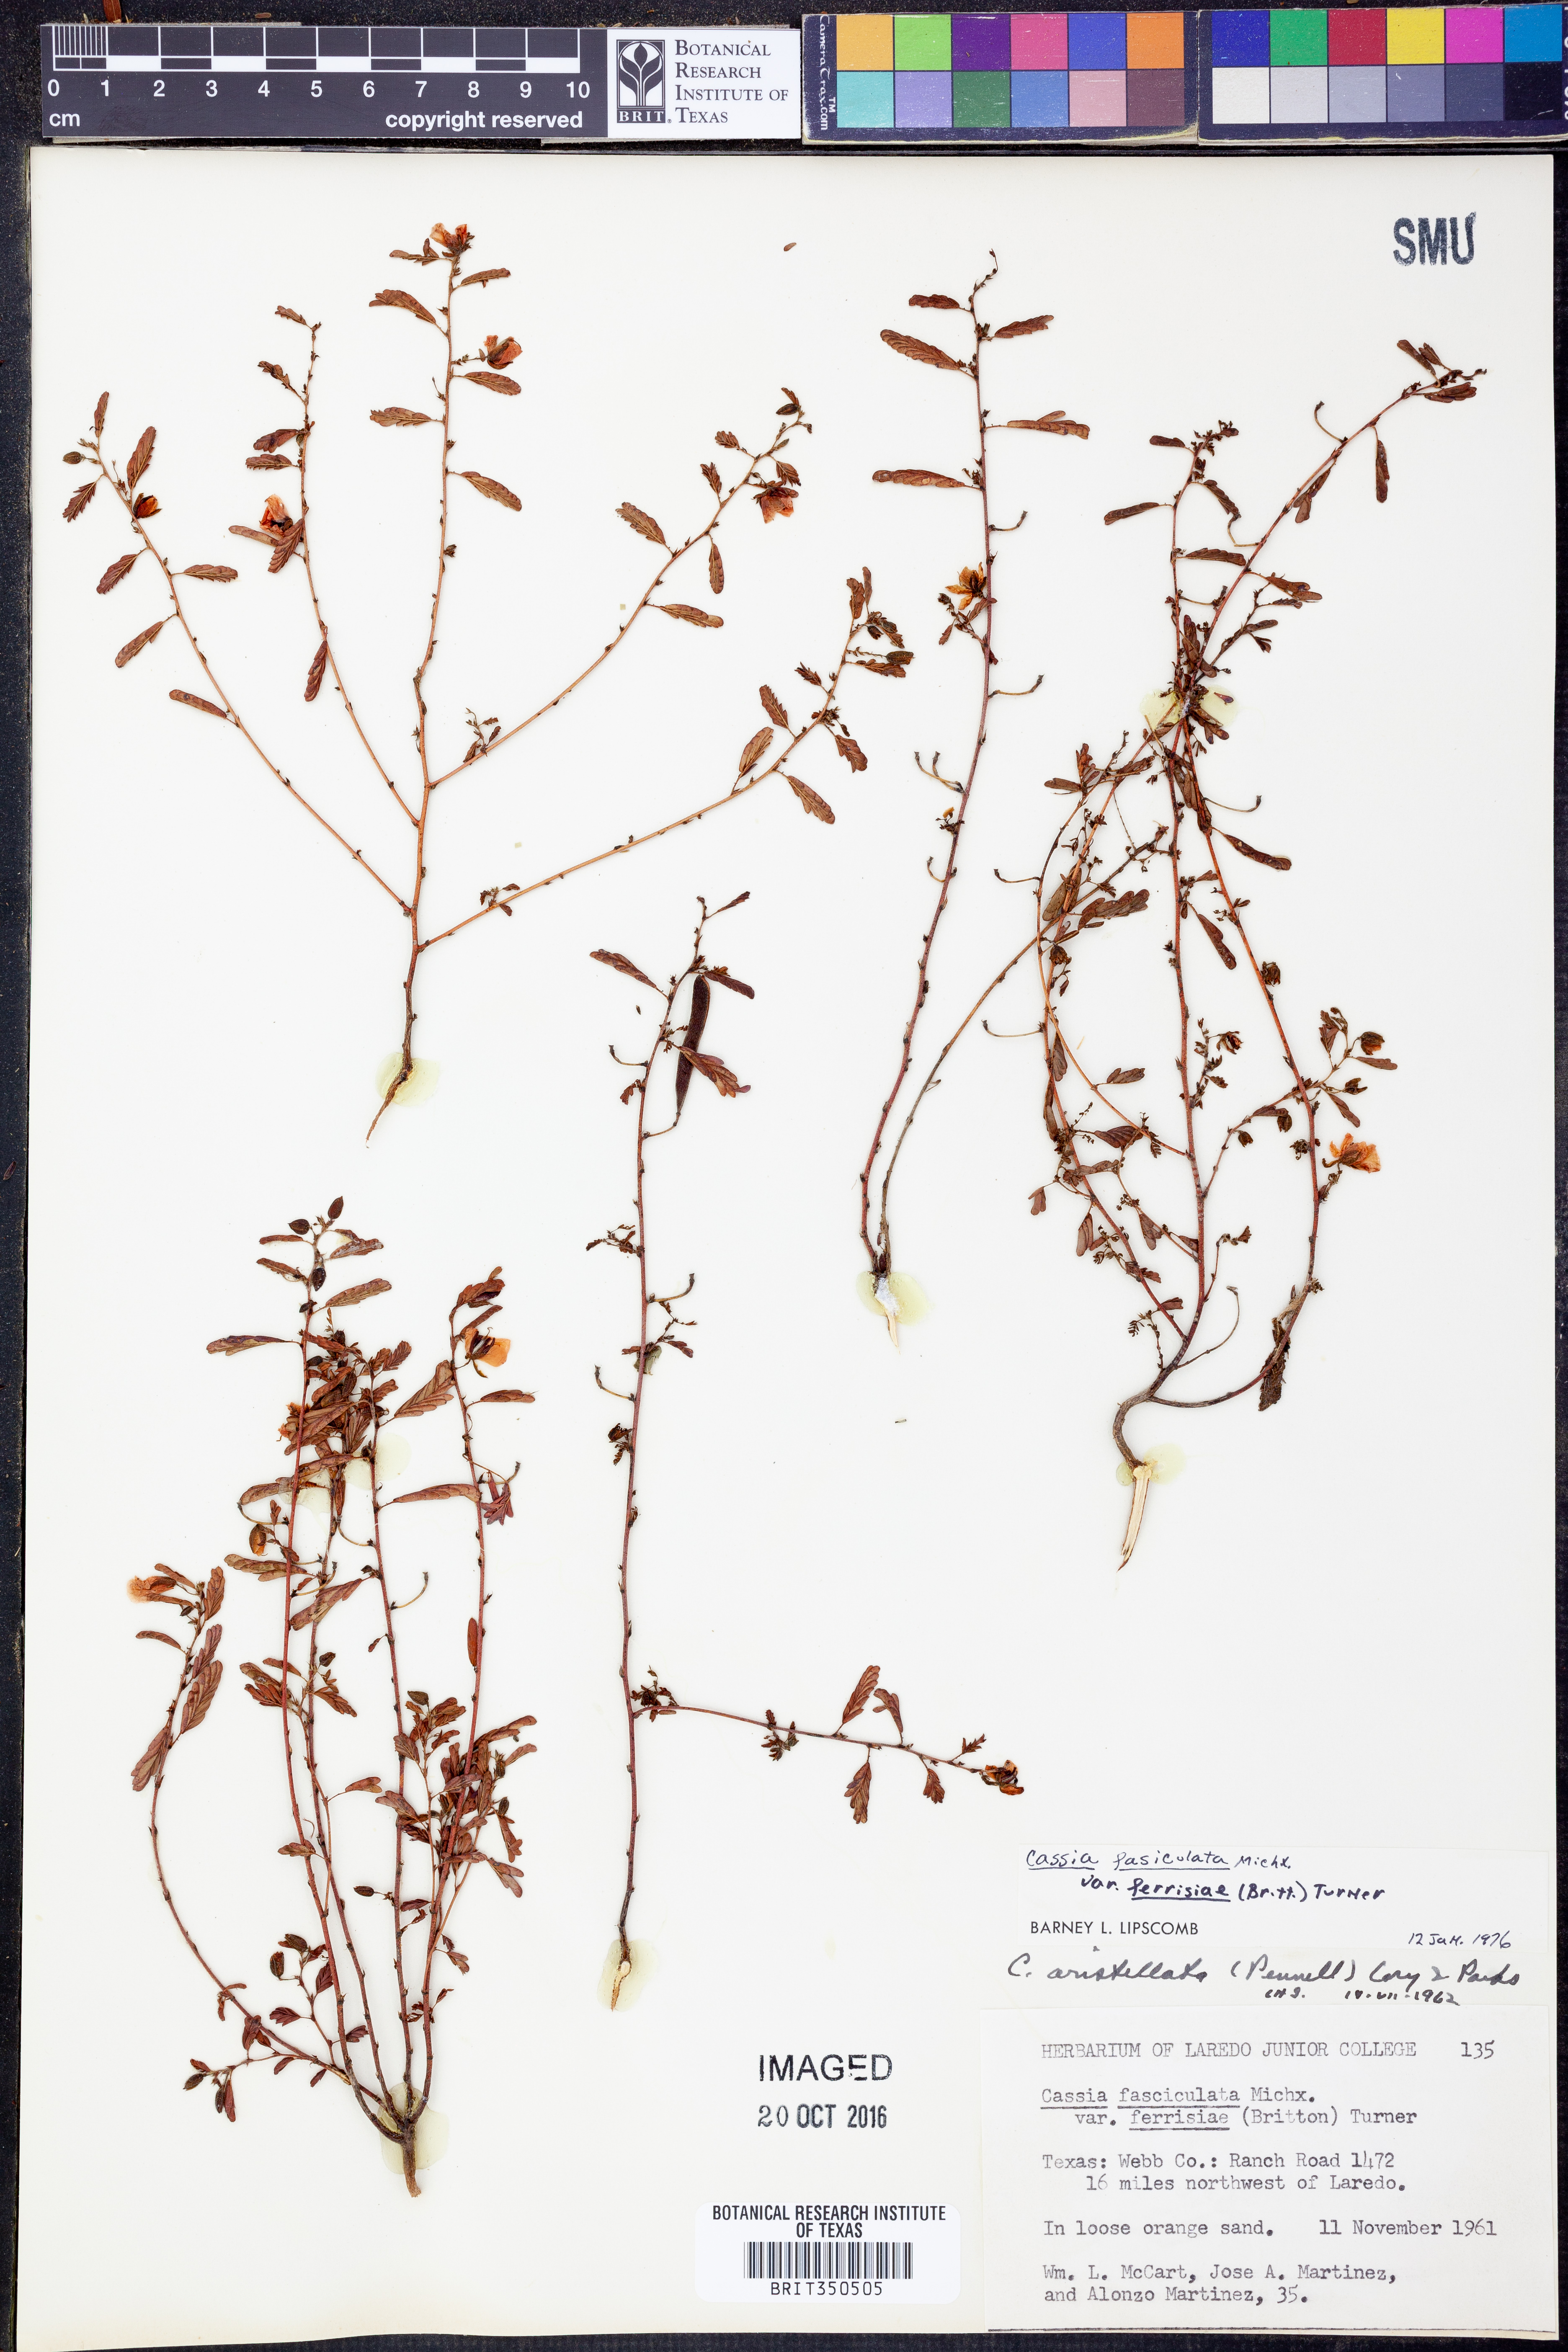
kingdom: Plantae
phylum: Tracheophyta
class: Magnoliopsida
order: Fabales
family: Fabaceae
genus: Chamaecrista
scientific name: Chamaecrista fasciculata
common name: Golden cassia
